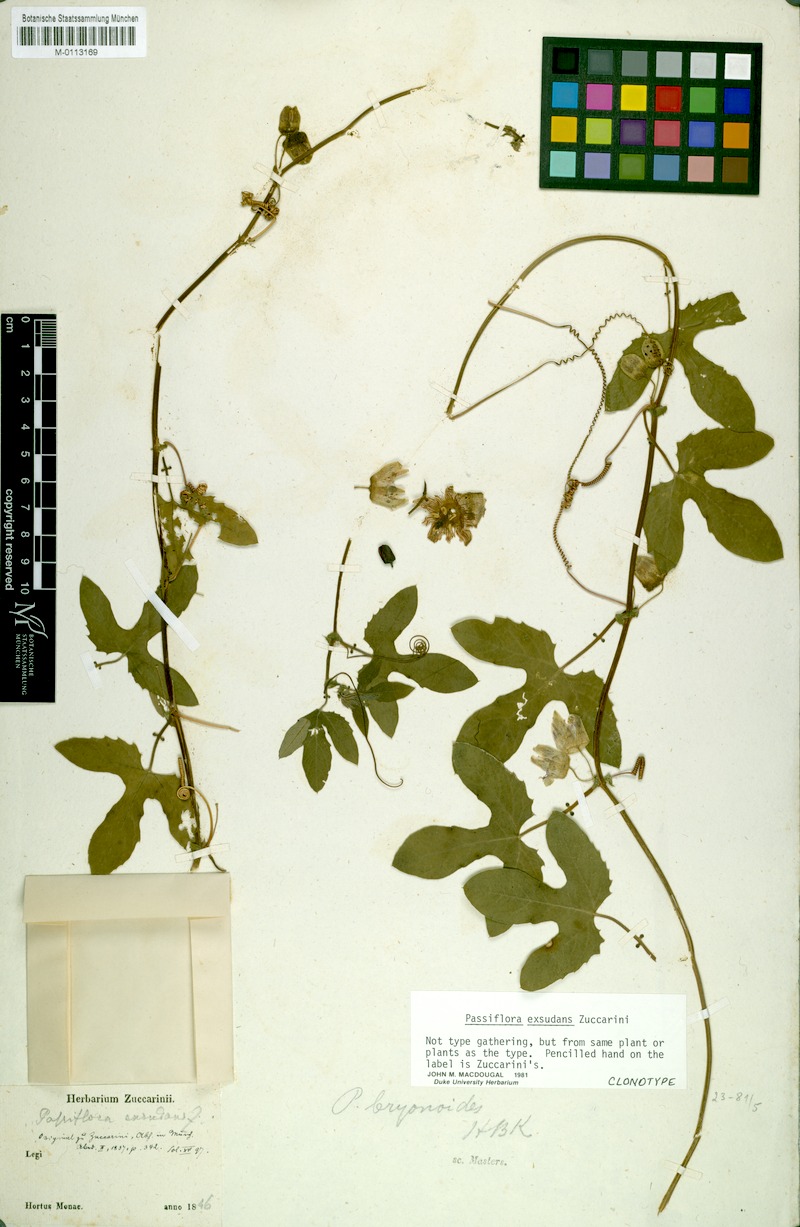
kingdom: Plantae
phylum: Tracheophyta
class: Magnoliopsida
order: Malpighiales
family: Passifloraceae
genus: Passiflora
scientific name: Passiflora exsudans
